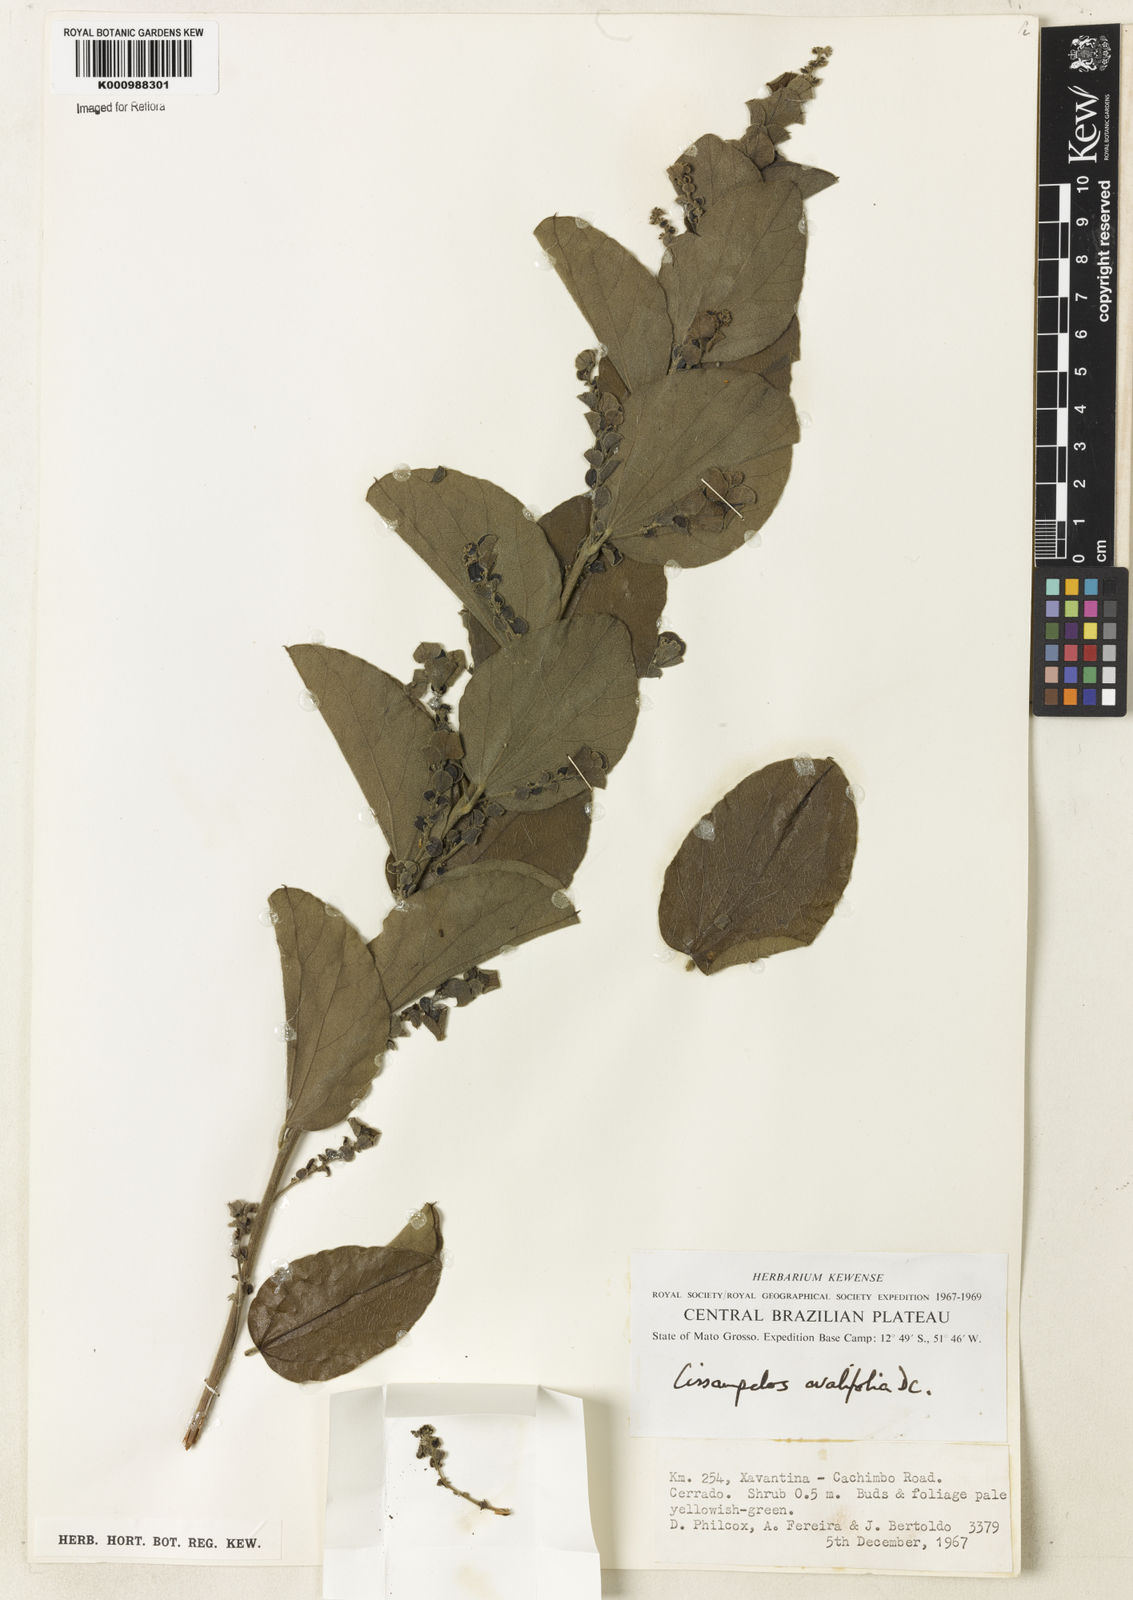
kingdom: Plantae
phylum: Tracheophyta
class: Magnoliopsida
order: Ranunculales
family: Menispermaceae
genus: Cissampelos
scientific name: Cissampelos ovalifolia
